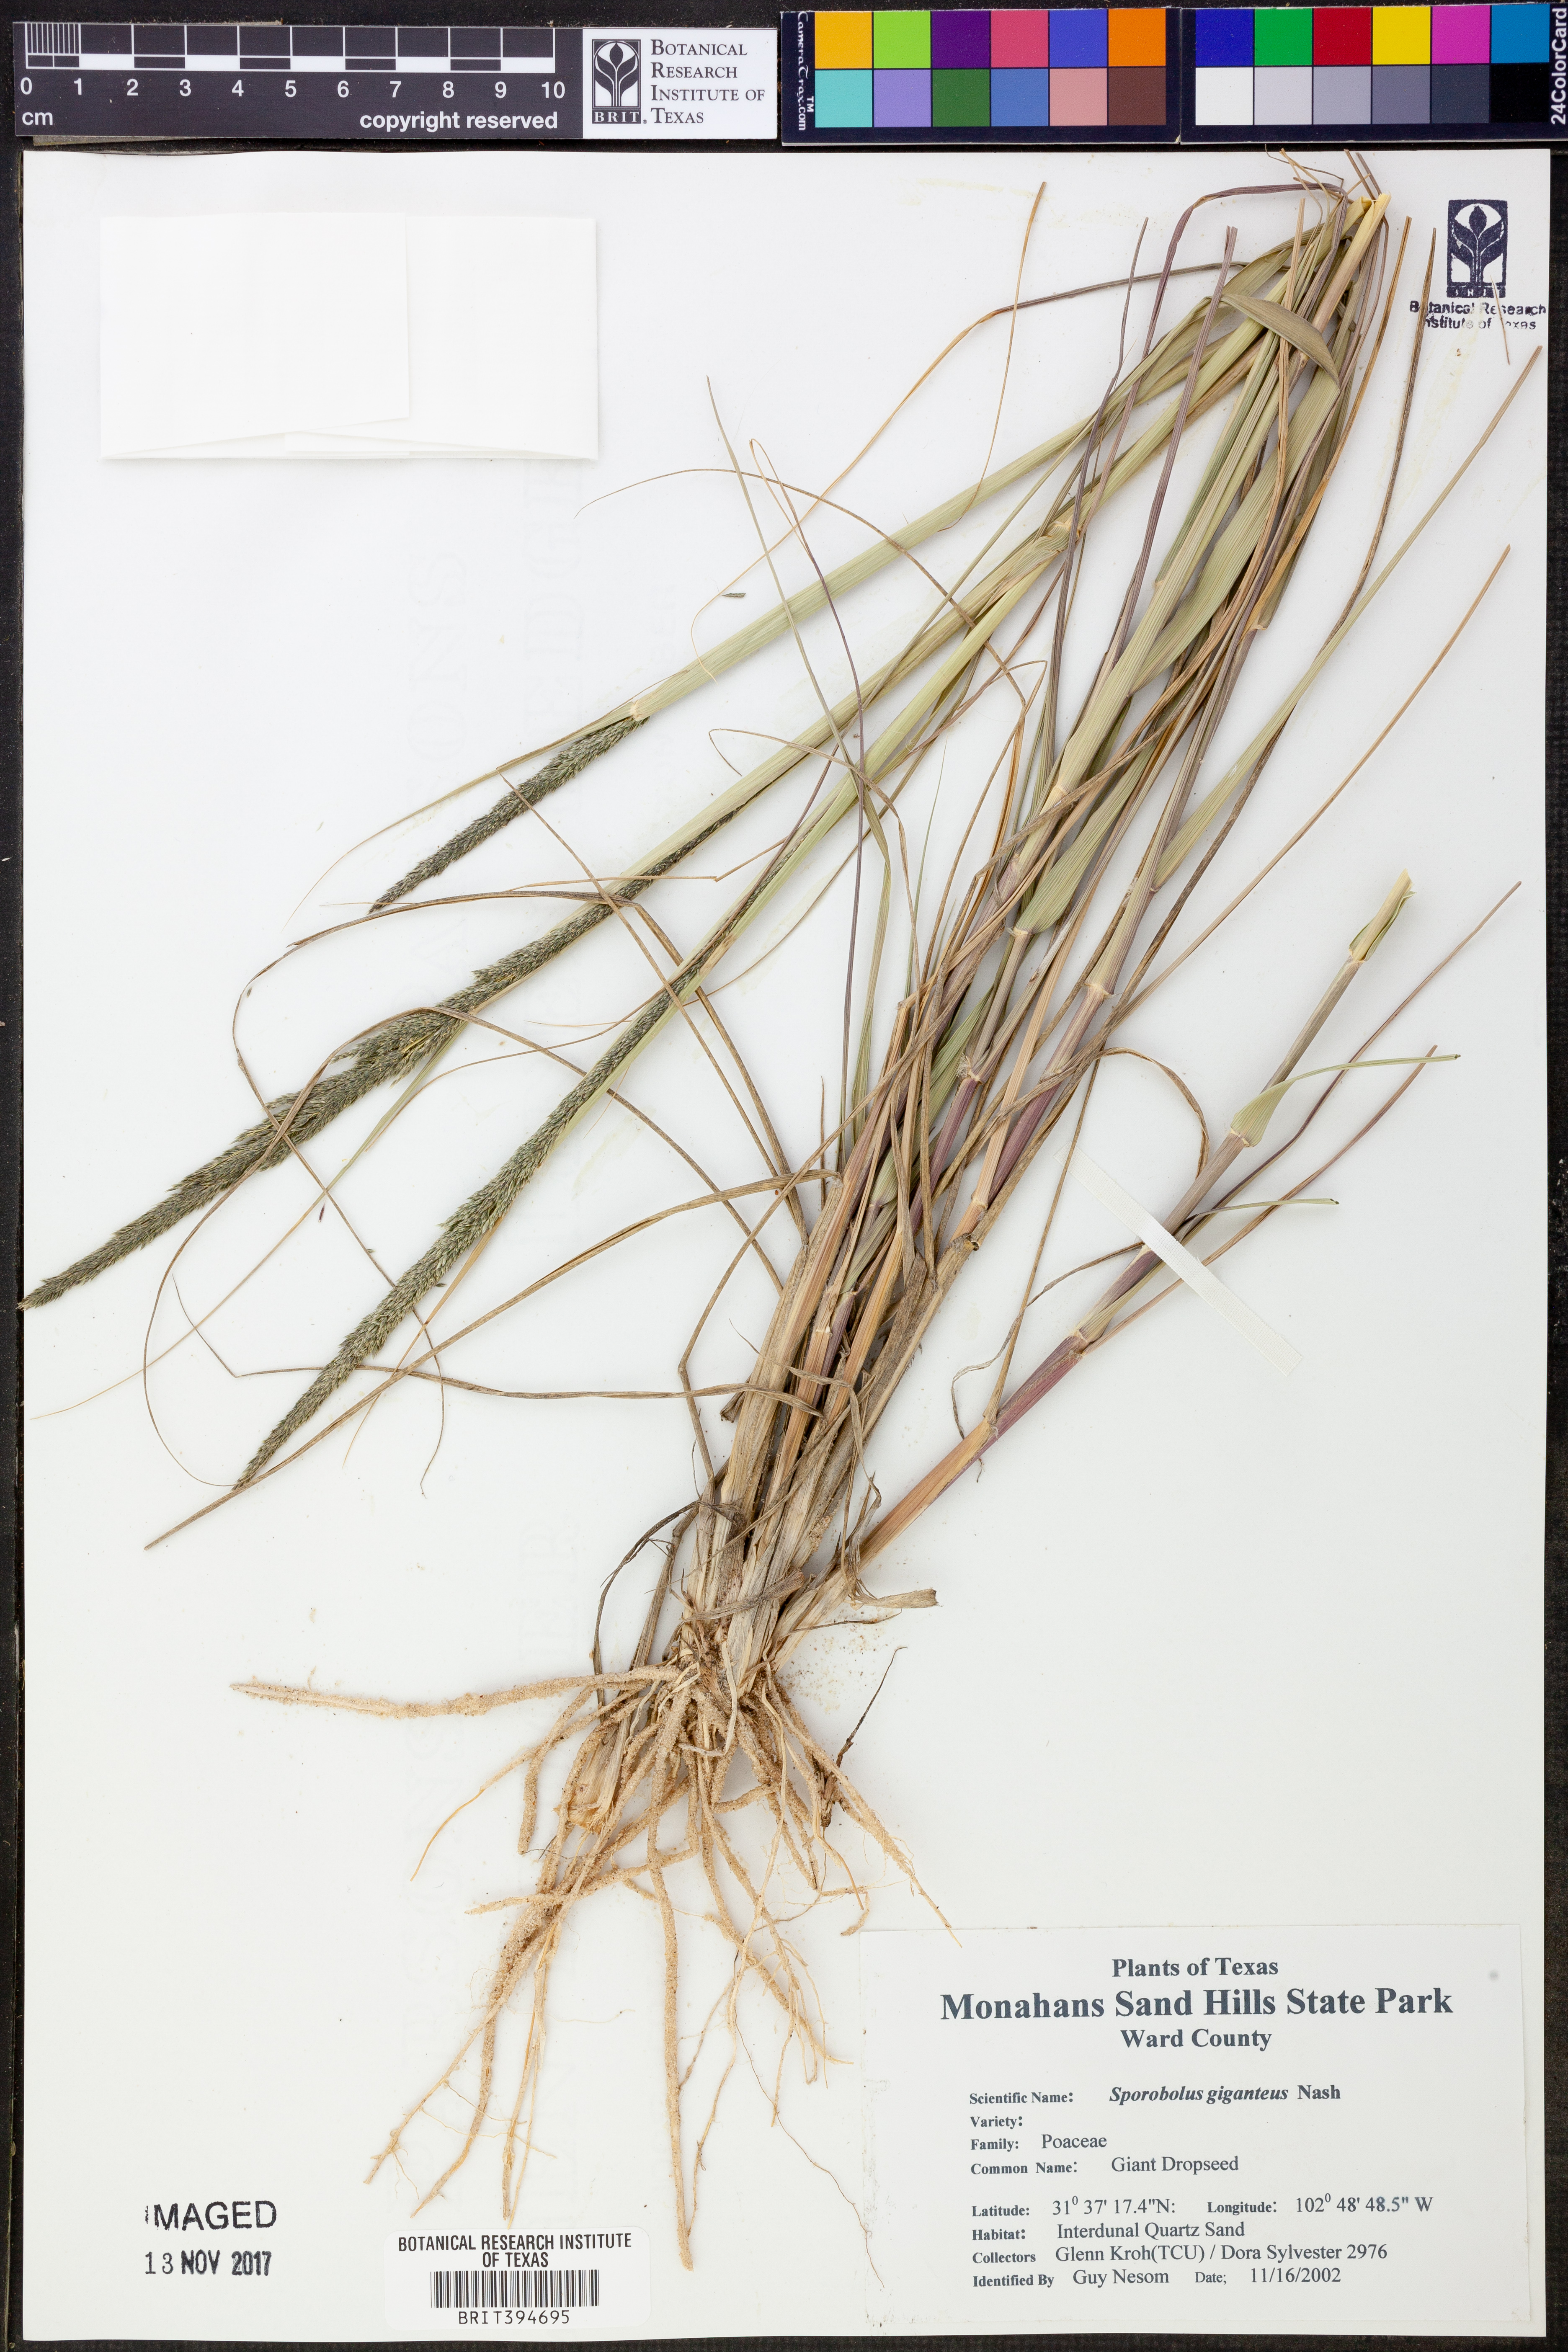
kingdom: Plantae
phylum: Tracheophyta
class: Liliopsida
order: Poales
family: Poaceae
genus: Sporobolus
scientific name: Sporobolus giganteus
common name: Giant dropseed
